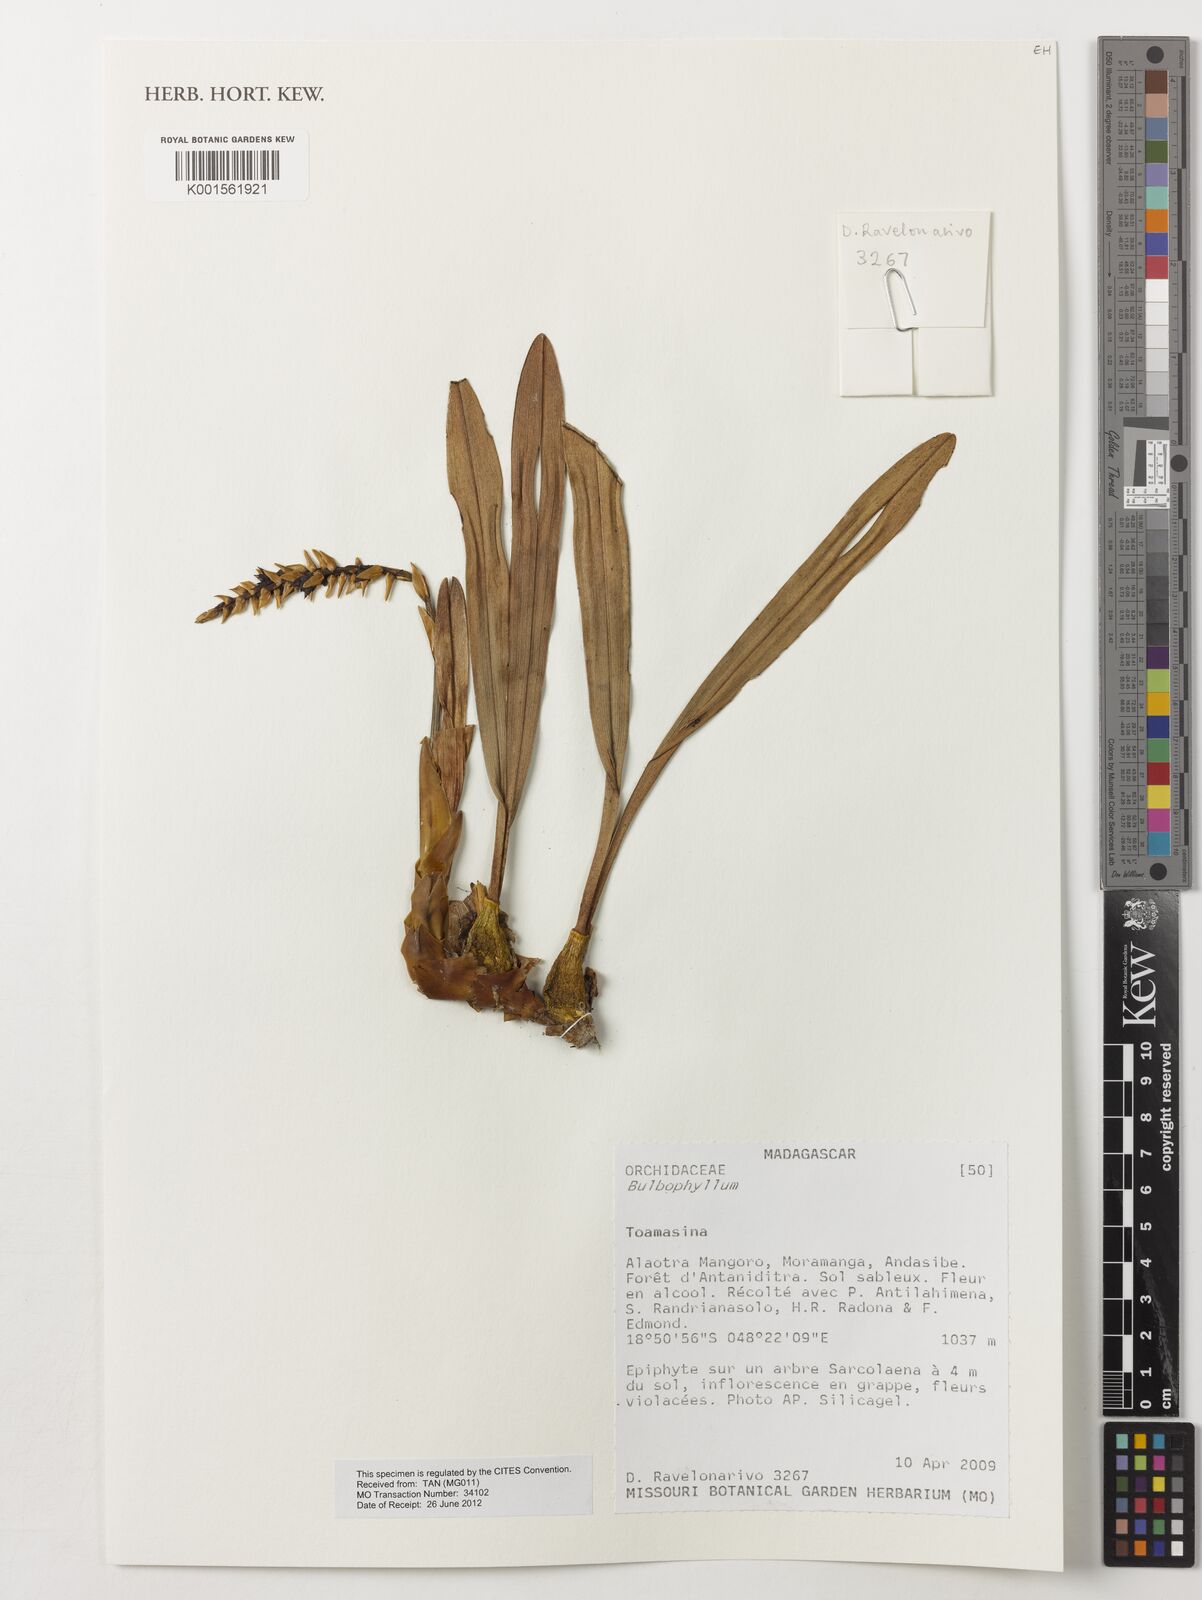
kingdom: Plantae
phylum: Tracheophyta
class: Liliopsida
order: Asparagales
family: Orchidaceae
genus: Bulbophyllum
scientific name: Bulbophyllum
